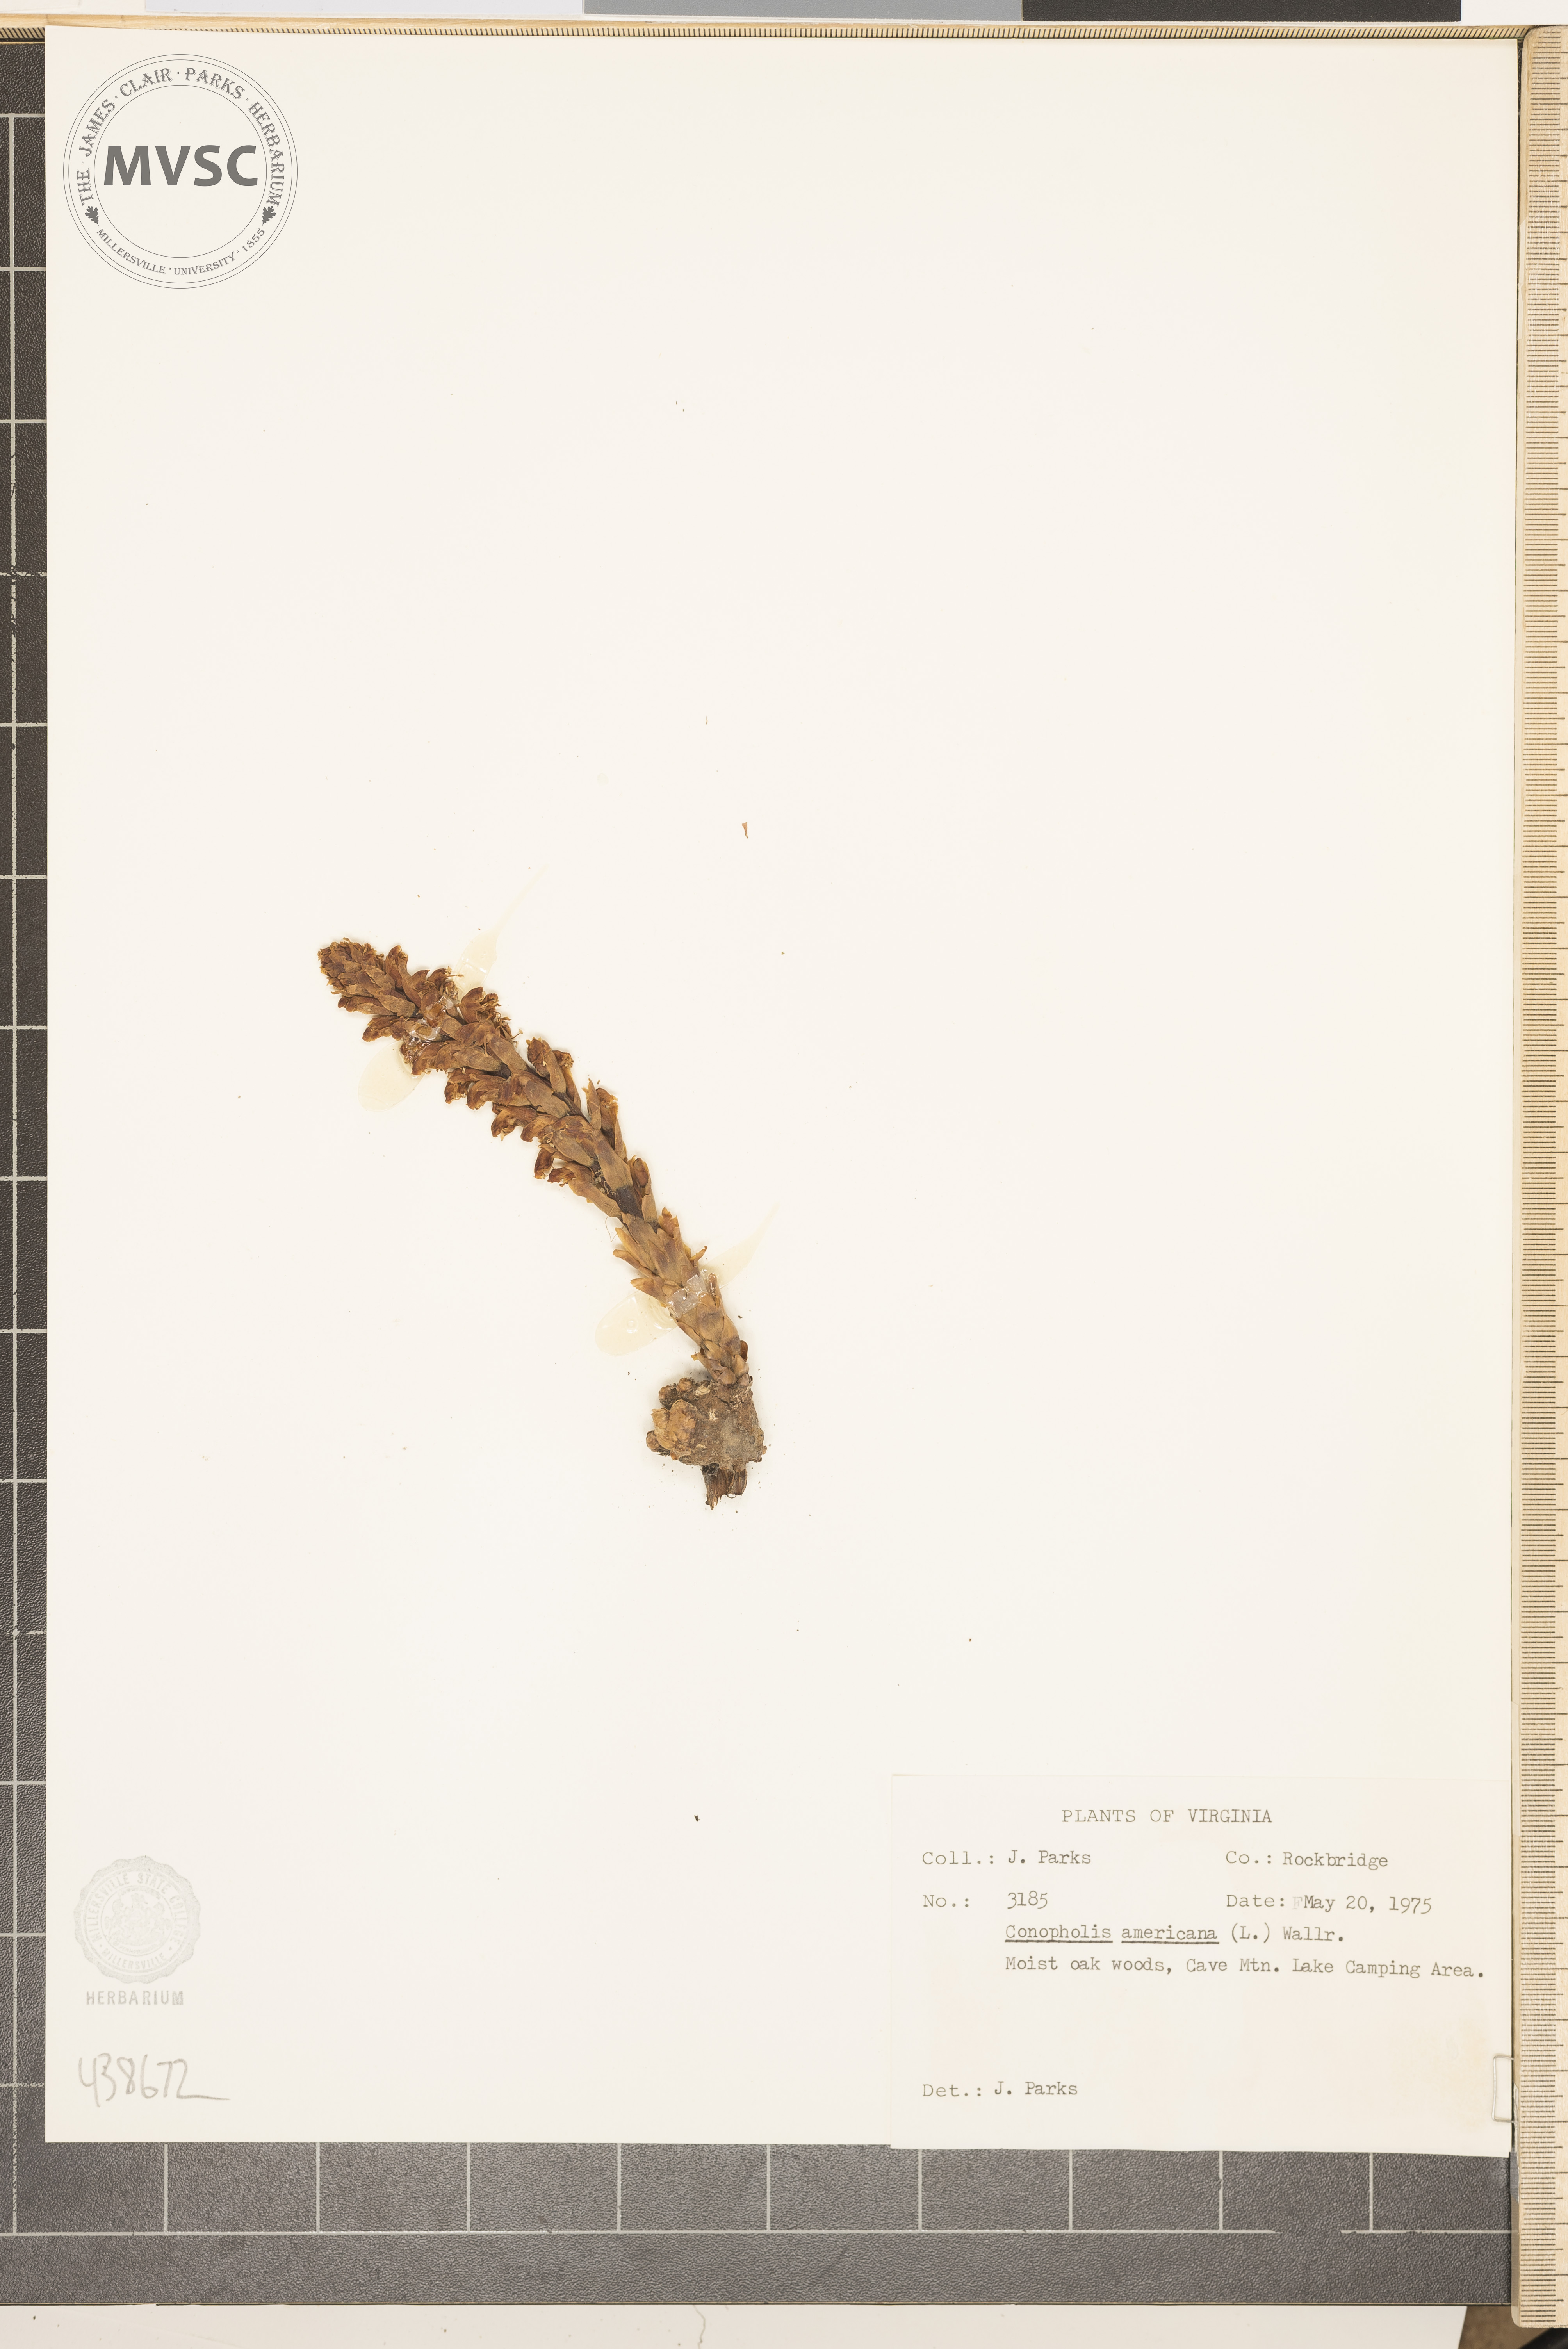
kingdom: Plantae
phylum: Tracheophyta
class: Magnoliopsida
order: Lamiales
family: Orobanchaceae
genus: Conopholis
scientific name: Conopholis americana
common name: American cancer-root
